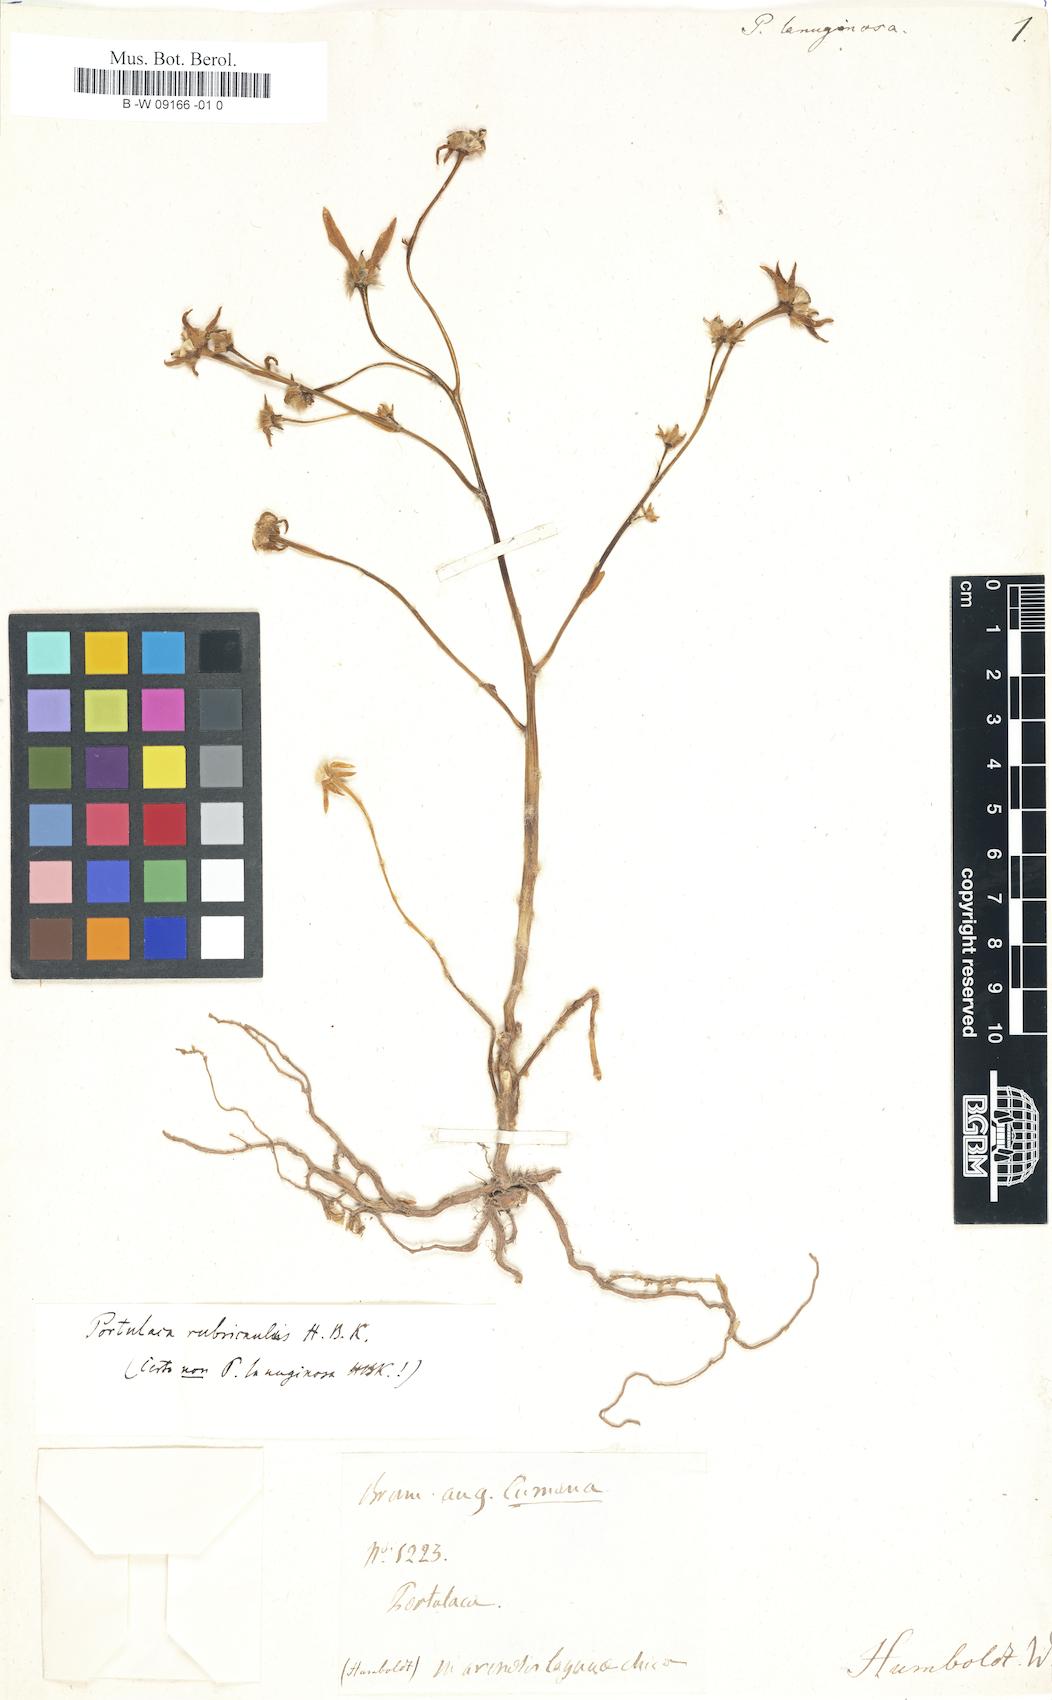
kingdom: Plantae
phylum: Tracheophyta
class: Magnoliopsida
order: Caryophyllales
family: Portulacaceae
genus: Portulaca
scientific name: Portulaca lanuginosa
